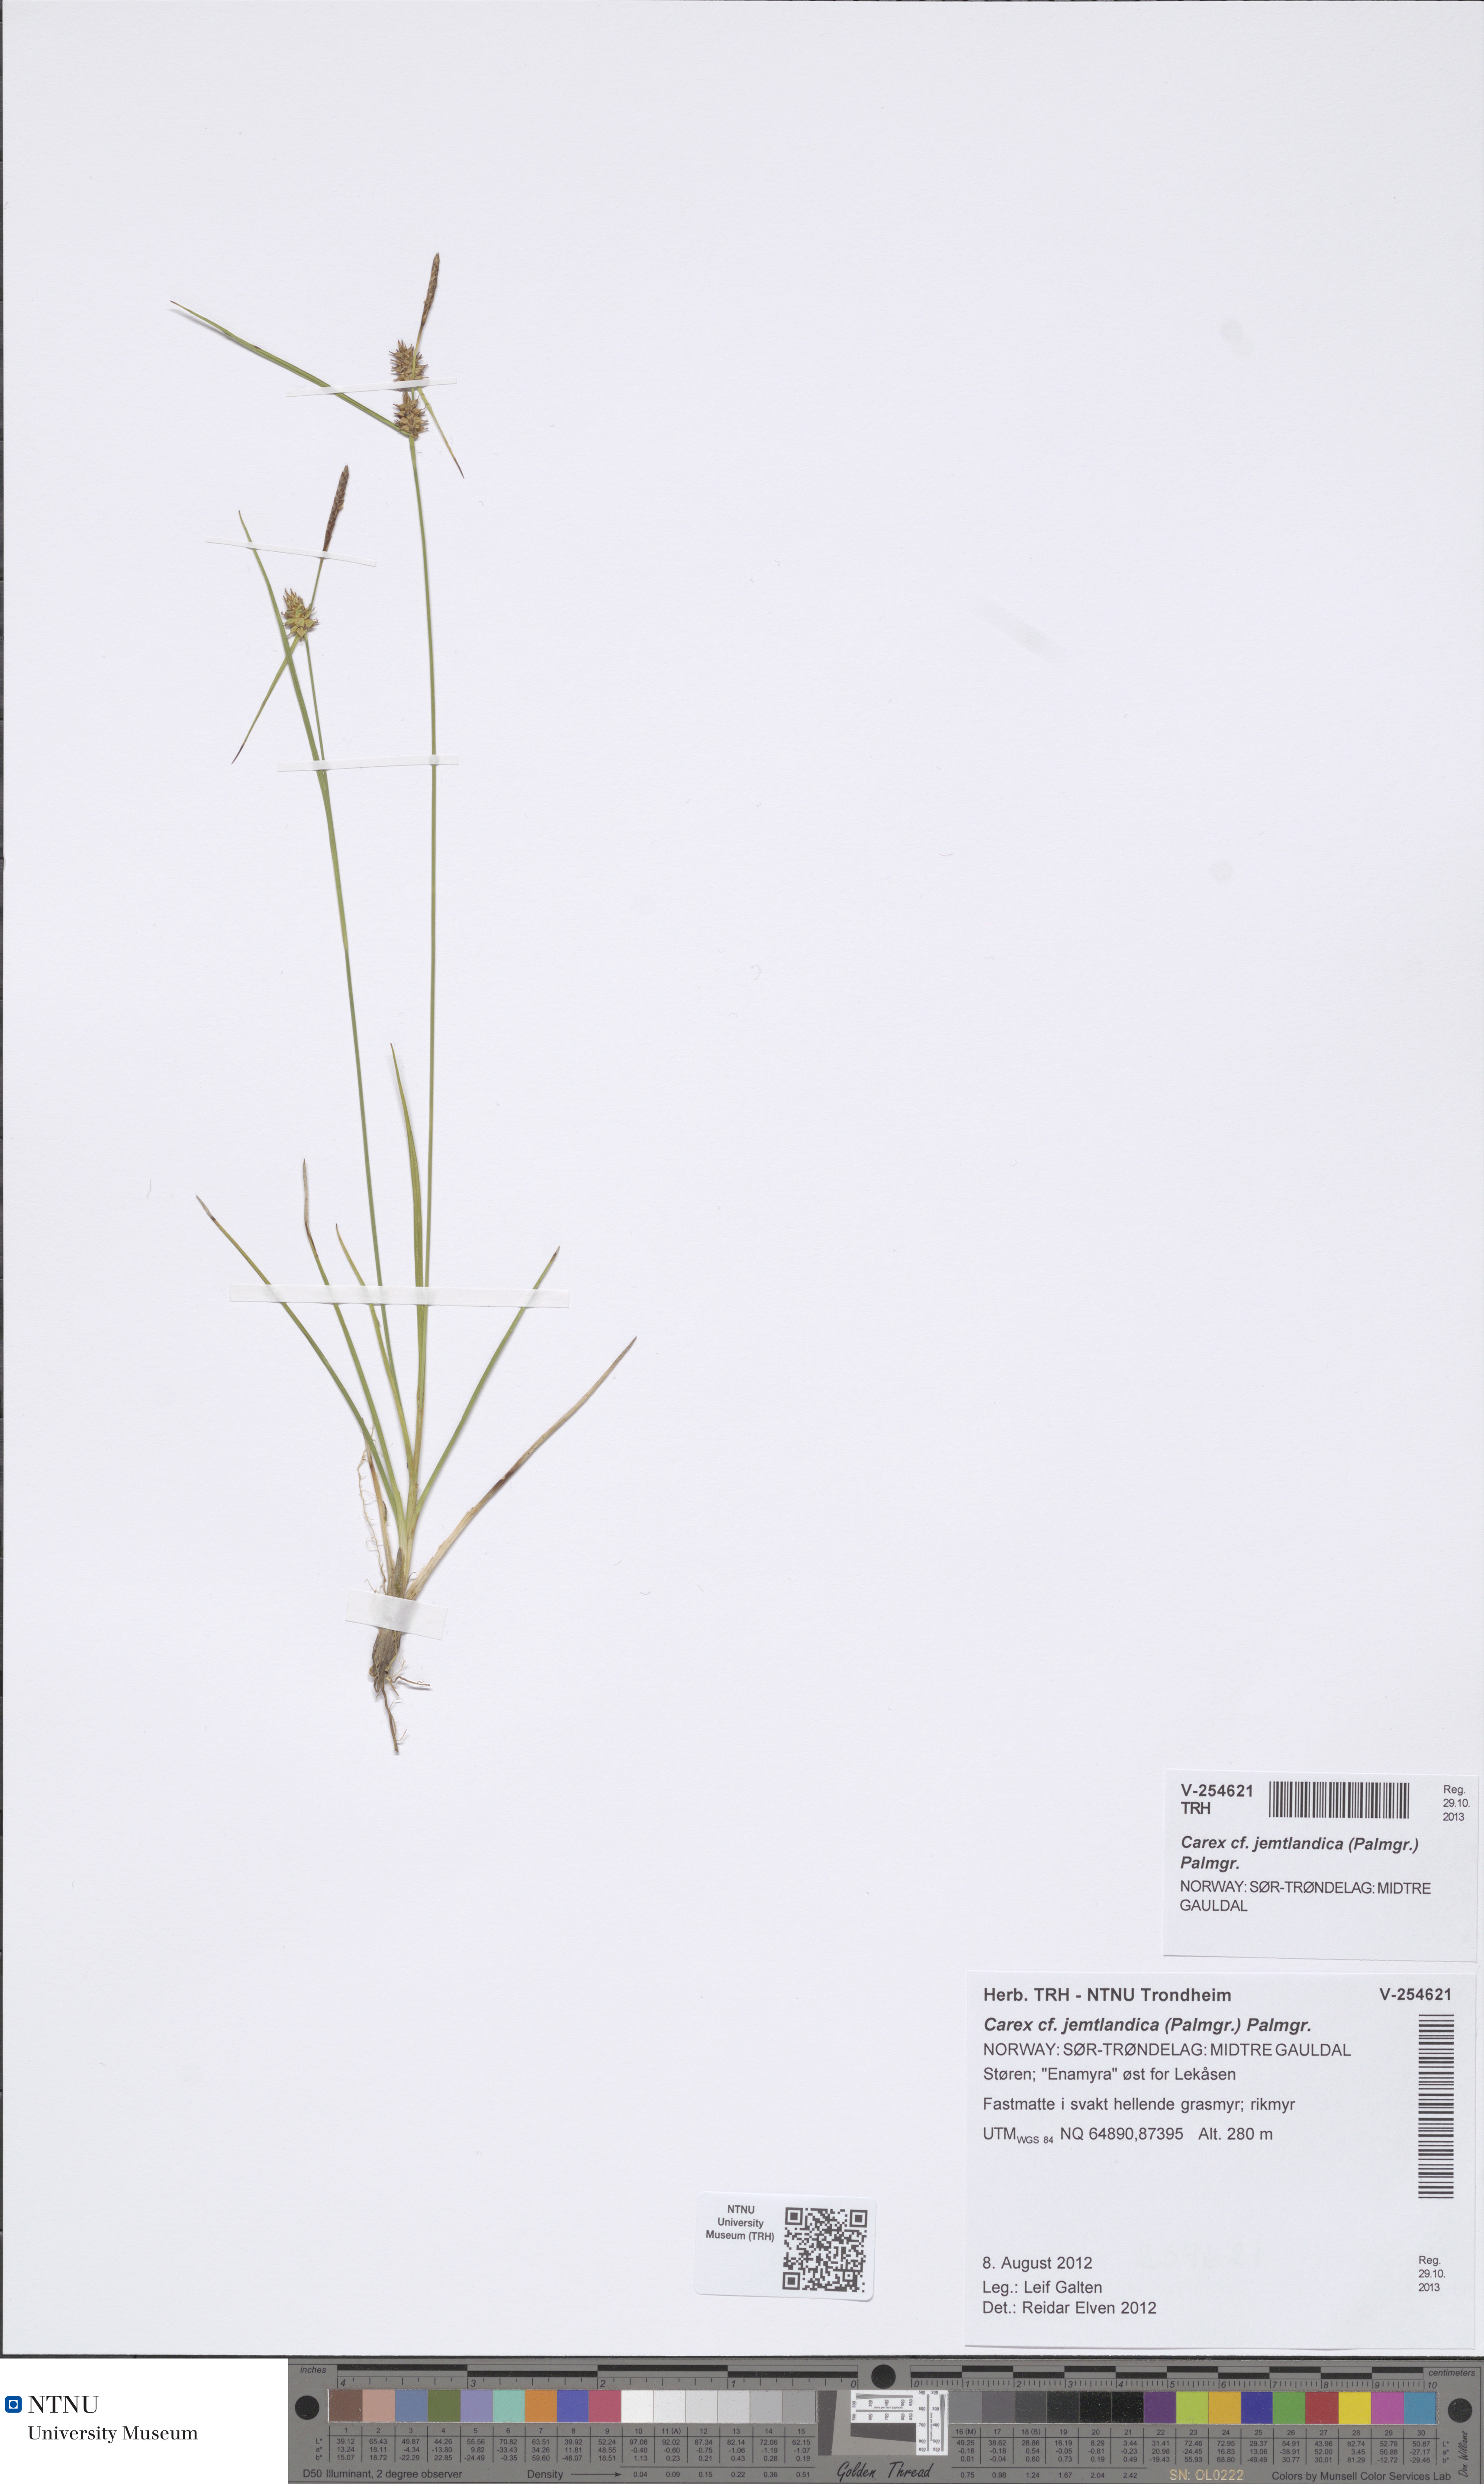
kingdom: Plantae
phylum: Tracheophyta
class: Liliopsida
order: Poales
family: Cyperaceae
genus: Carex
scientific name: Carex lepidocarpa
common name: Long-stalked yellow-sedge
